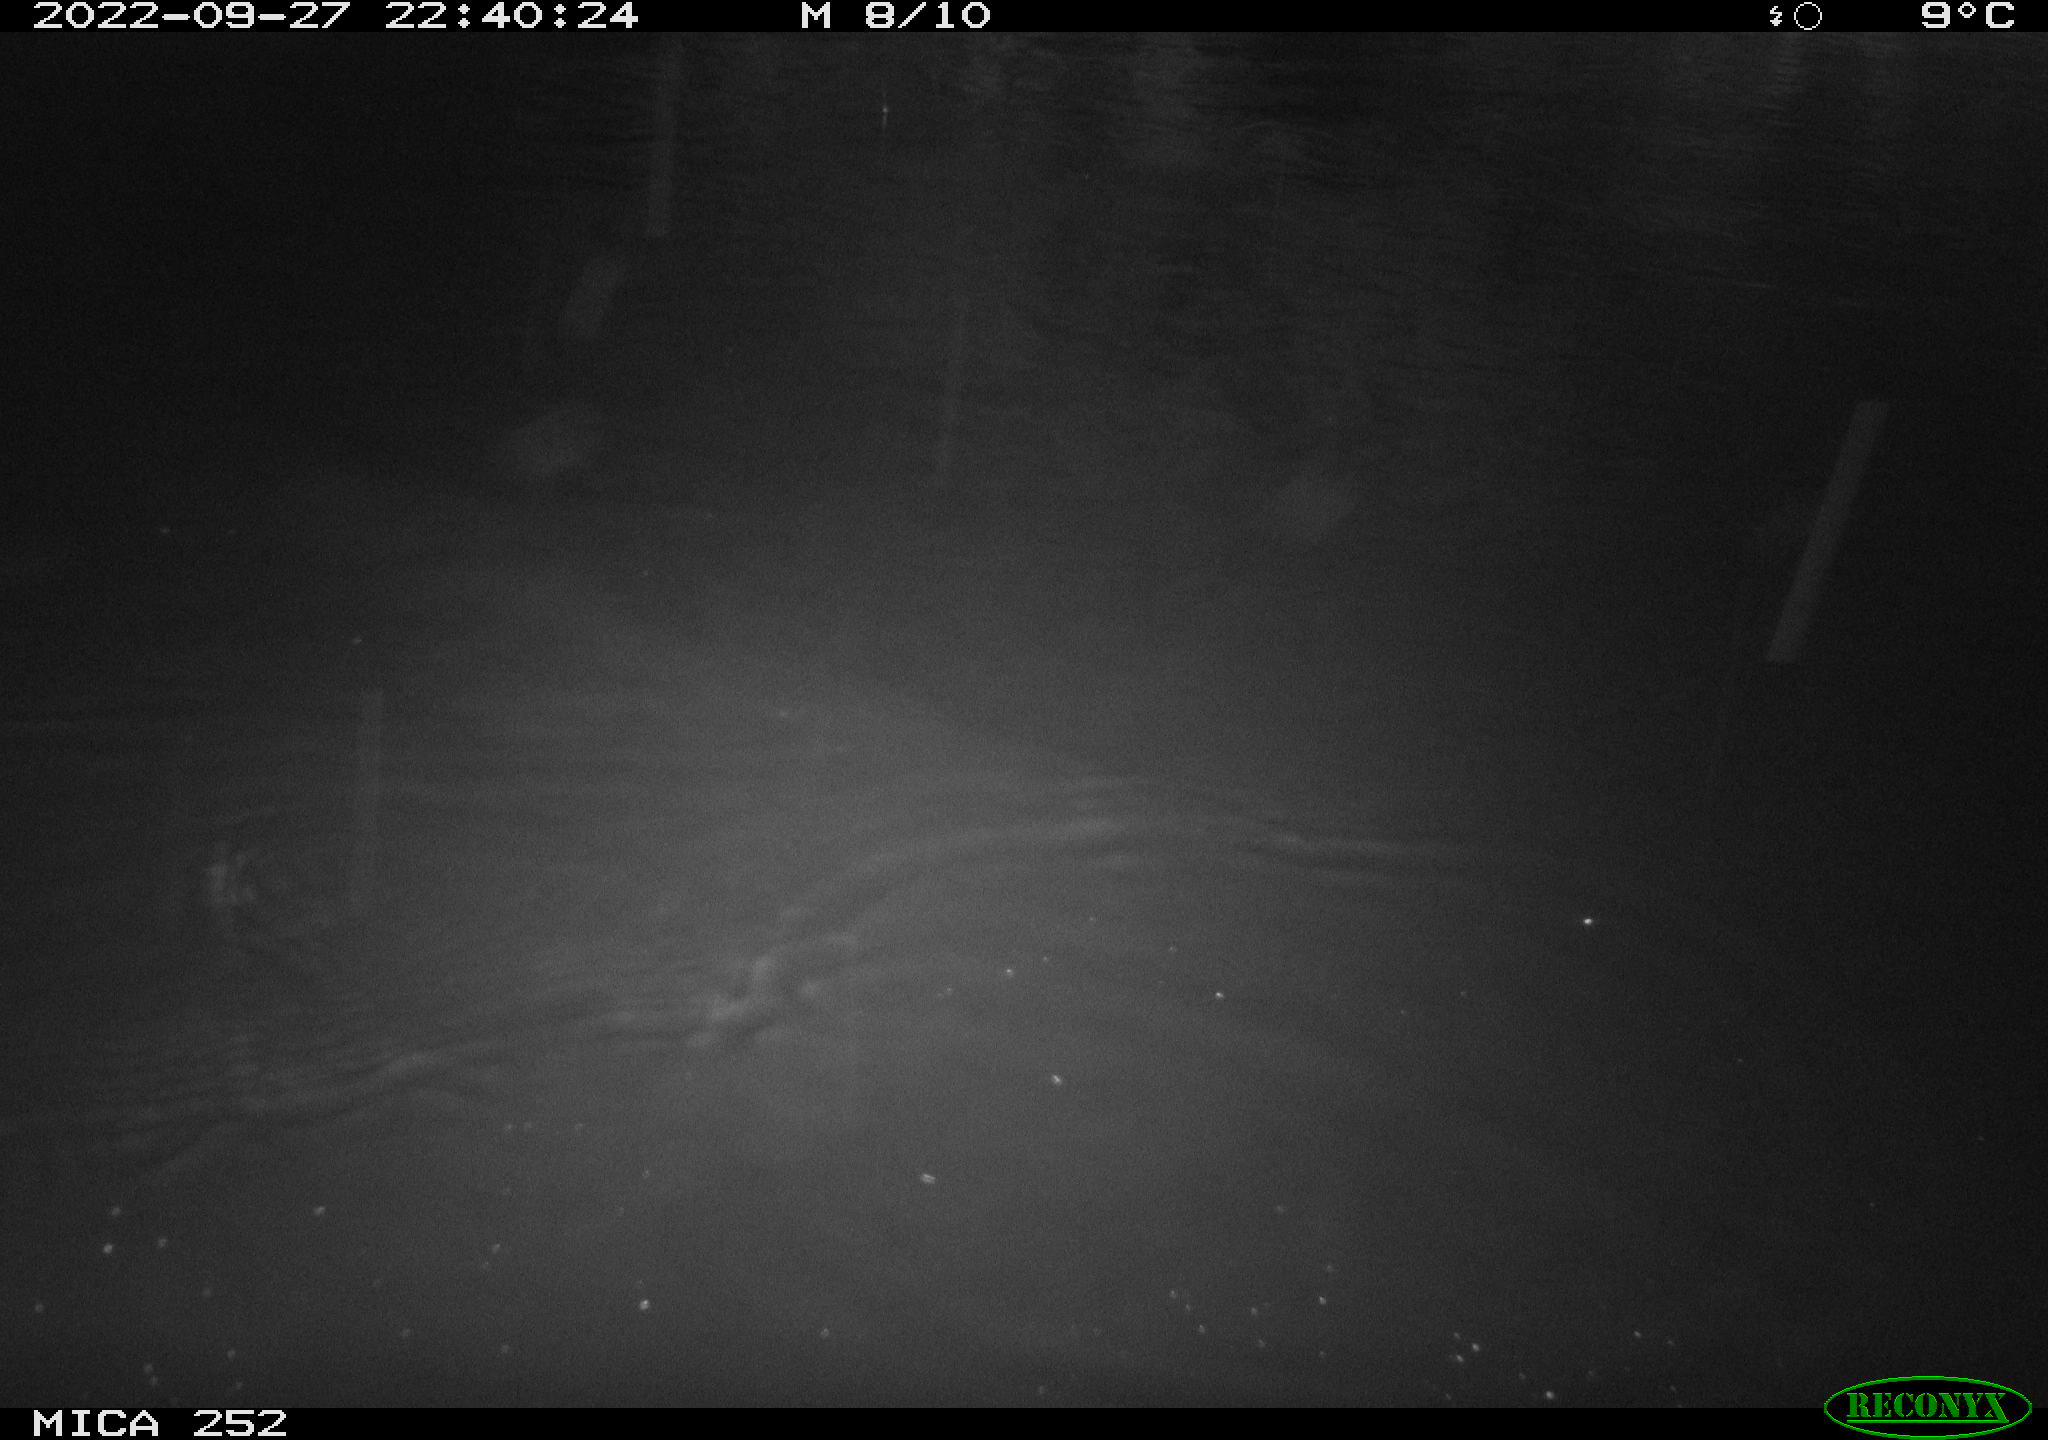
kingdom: Animalia
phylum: Chordata
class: Mammalia
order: Rodentia
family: Castoridae
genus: Castor
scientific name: Castor fiber
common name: Eurasian beaver
